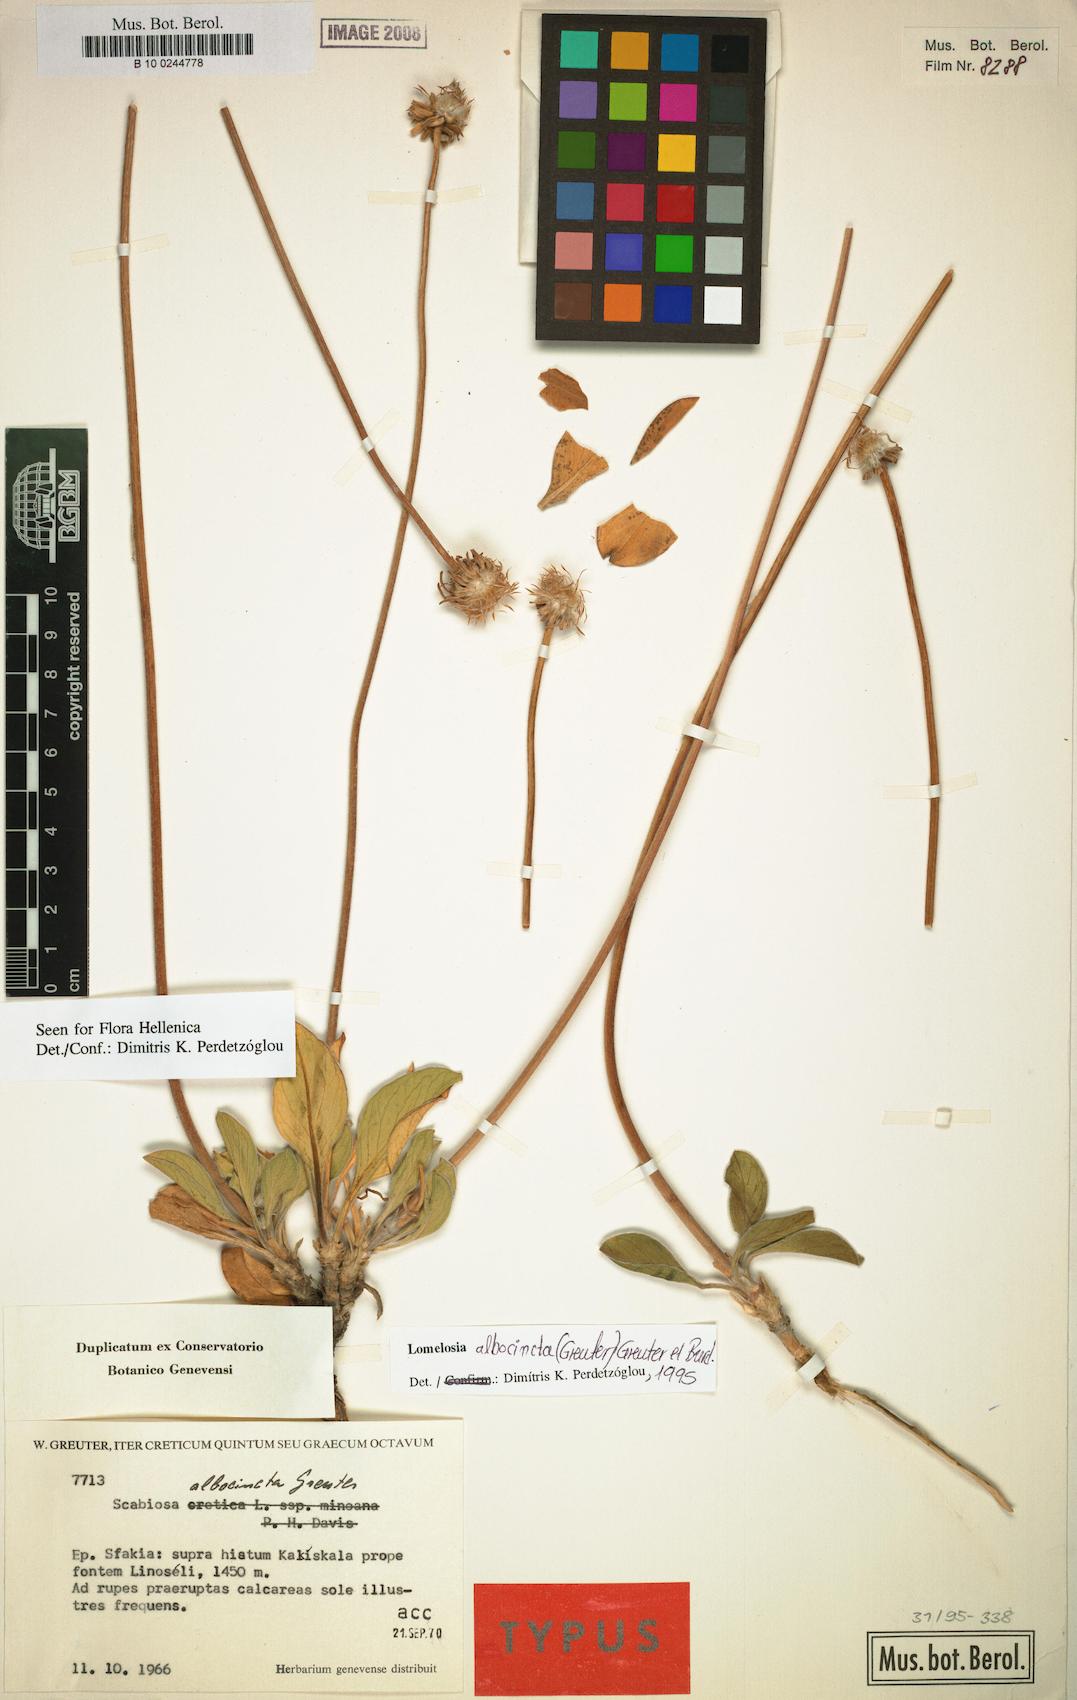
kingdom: Plantae
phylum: Tracheophyta
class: Magnoliopsida
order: Dipsacales
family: Caprifoliaceae
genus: Lomelosia
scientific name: Lomelosia albocincta
